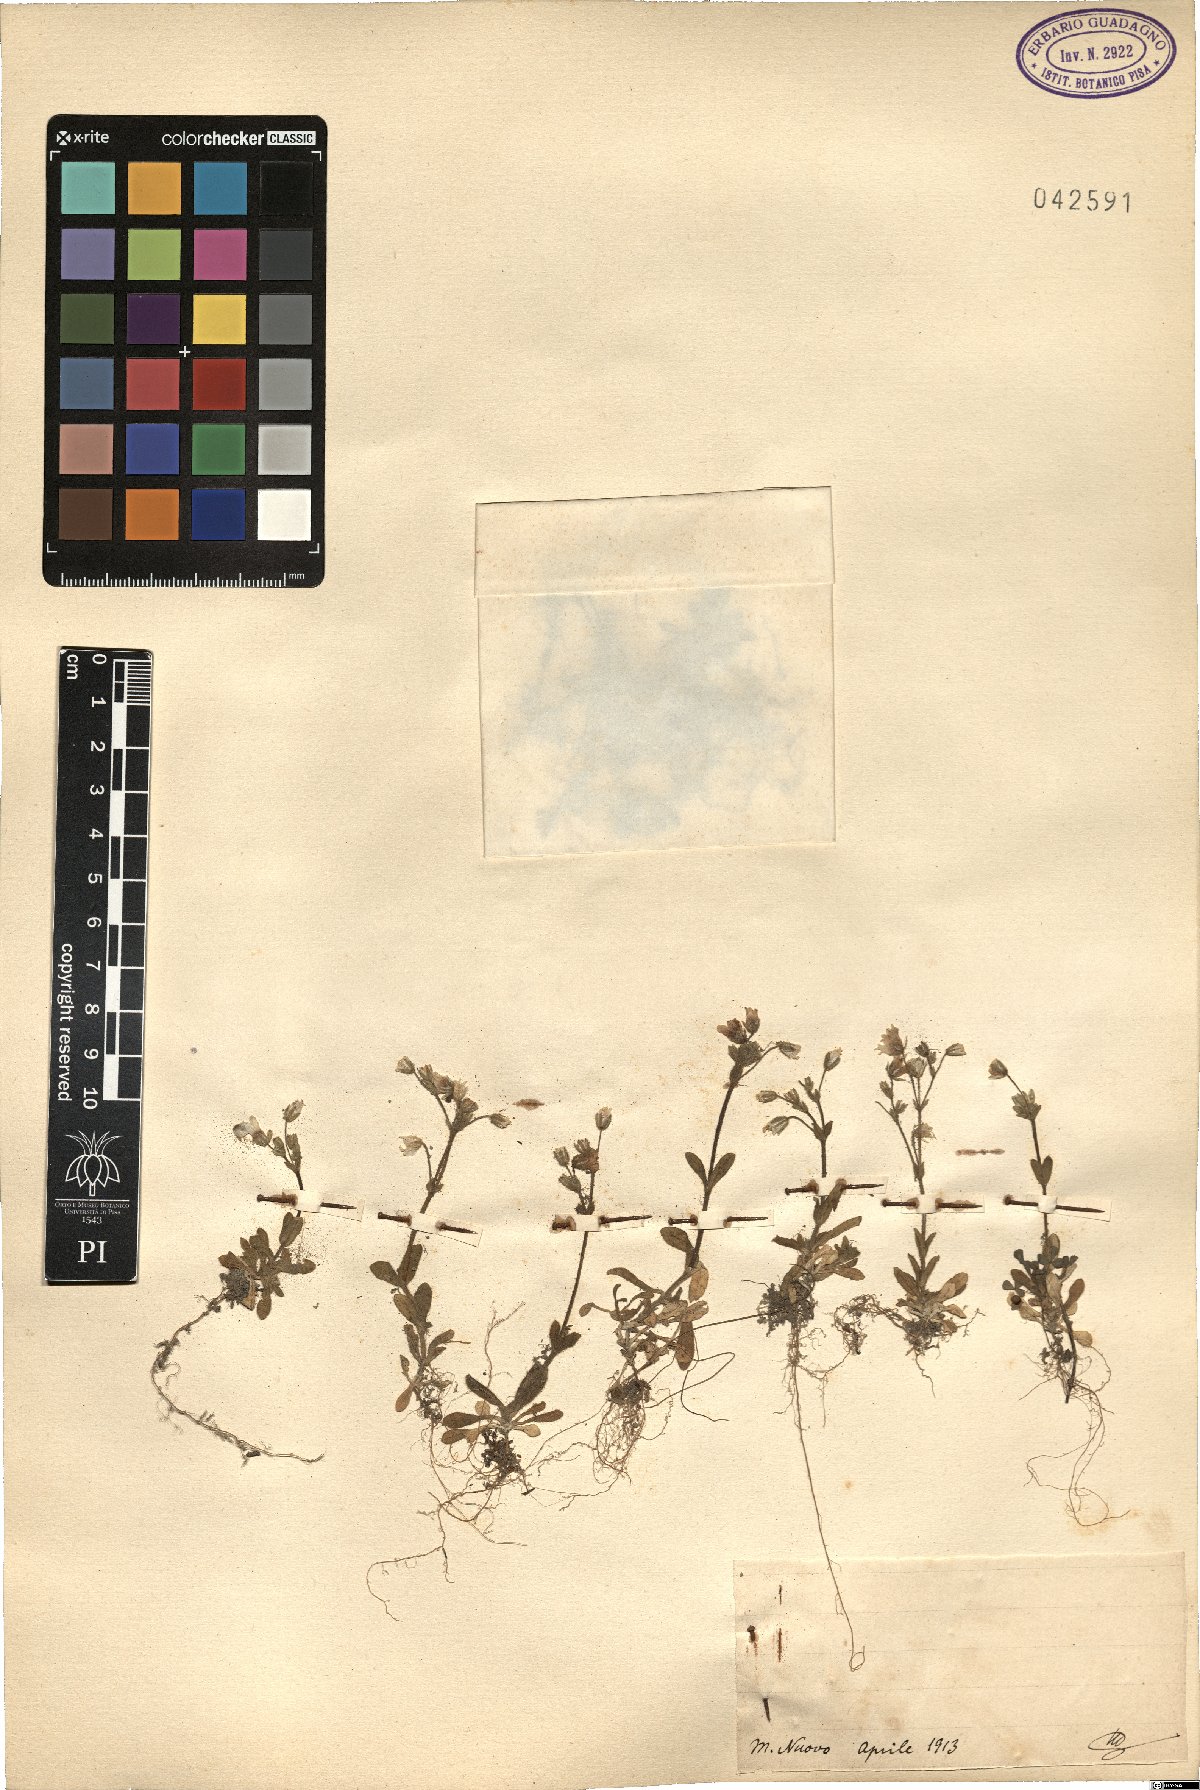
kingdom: Plantae
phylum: Tracheophyta
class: Magnoliopsida
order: Caryophyllales
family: Caryophyllaceae
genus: Cerastium
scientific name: Cerastium
